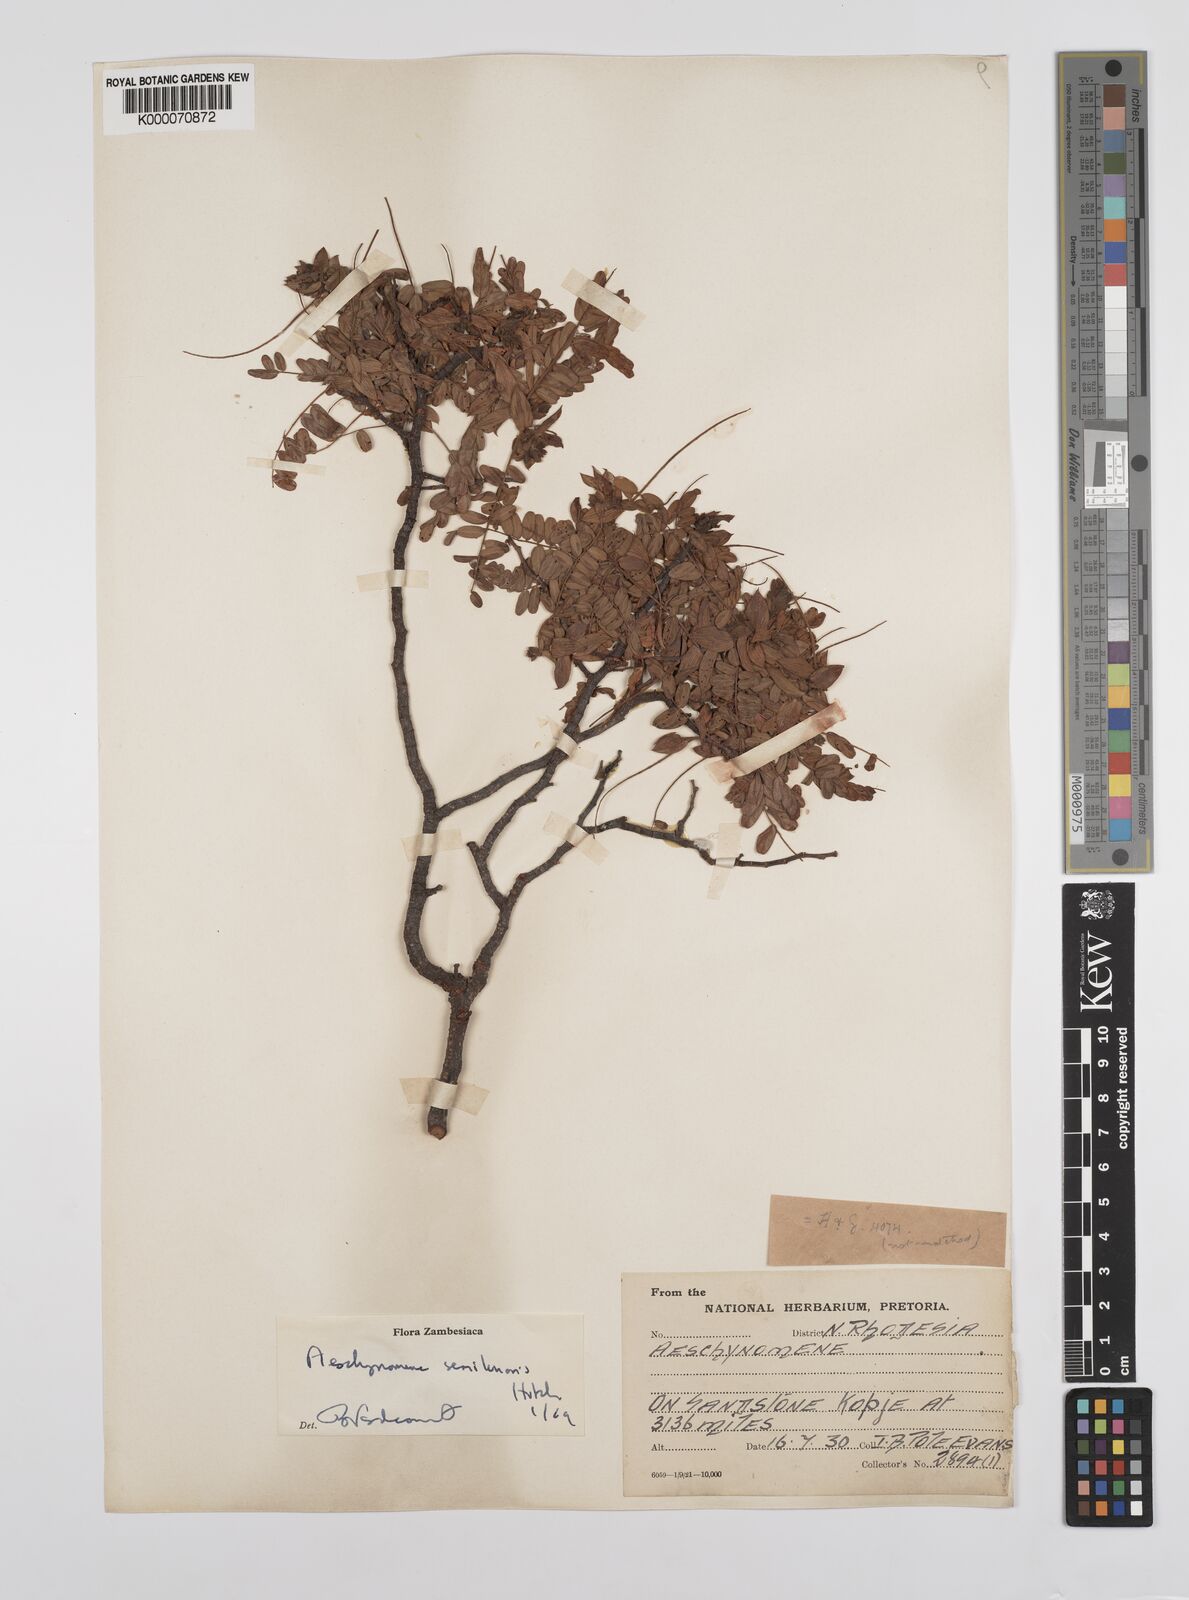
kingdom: Plantae
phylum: Tracheophyta
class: Magnoliopsida
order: Fabales
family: Fabaceae
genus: Aeschynomene
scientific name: Aeschynomene semilunaris
